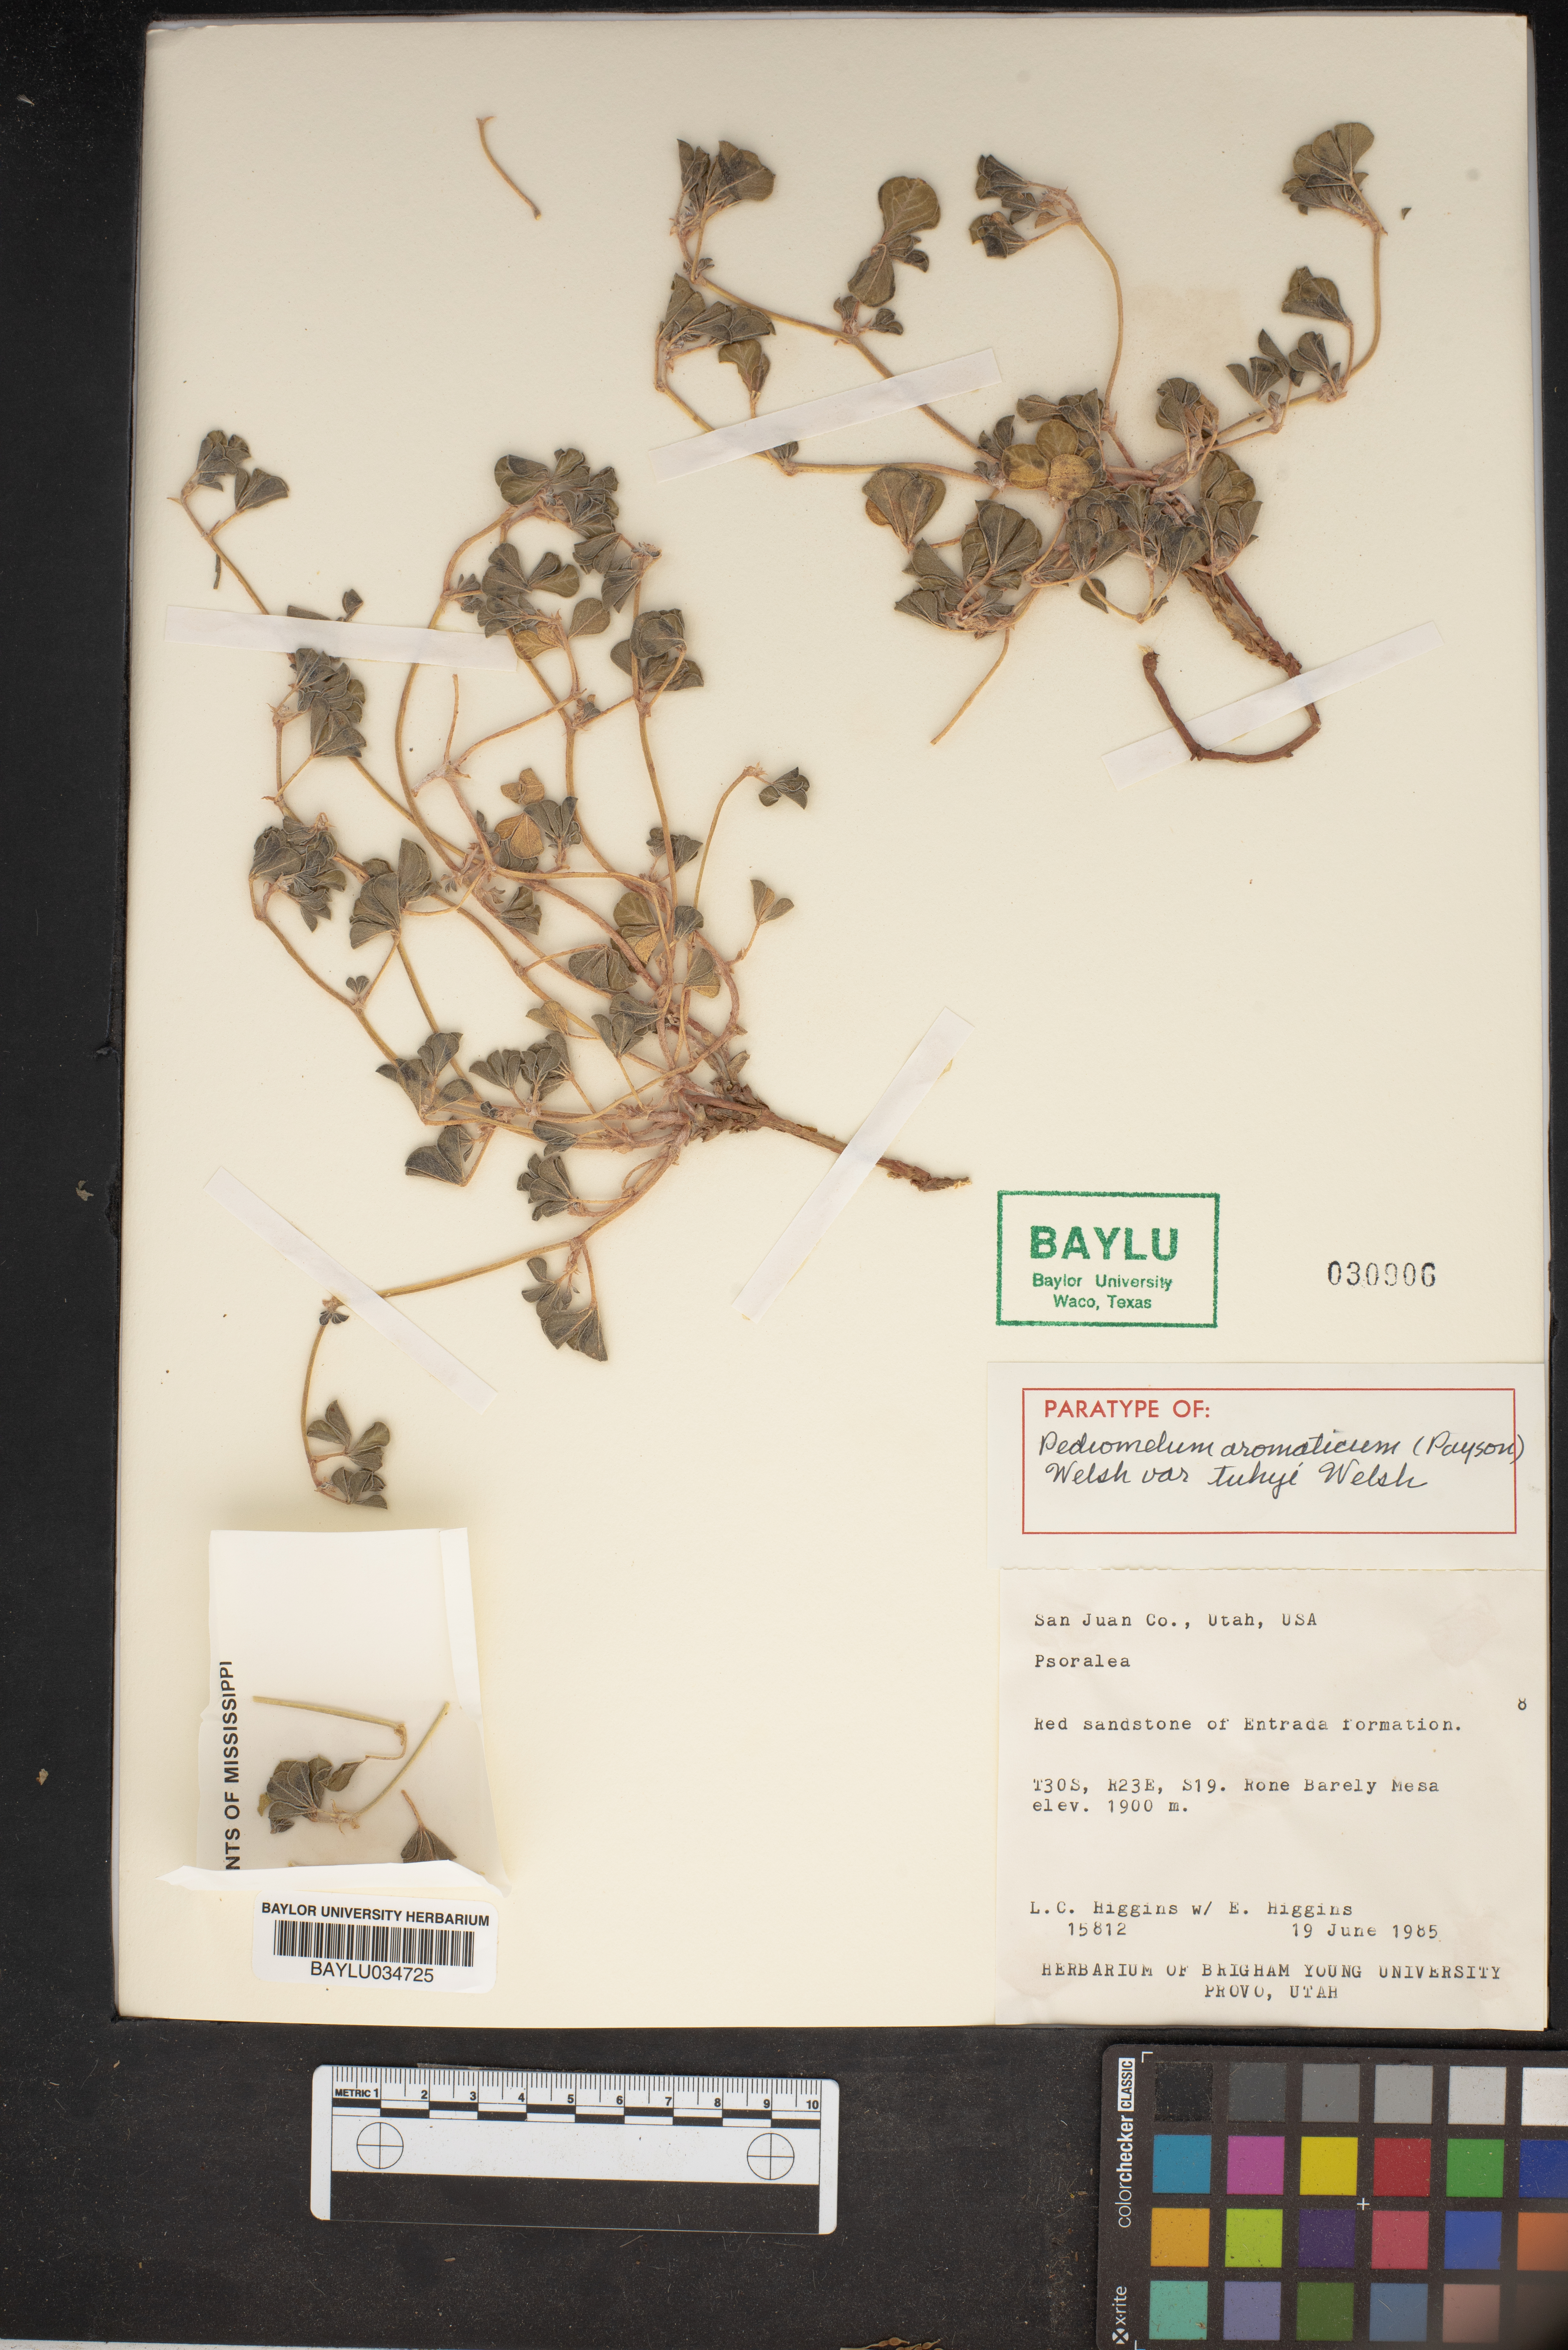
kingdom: Plantae
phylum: Tracheophyta
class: Magnoliopsida
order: Fabales
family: Fabaceae
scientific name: Fabaceae
